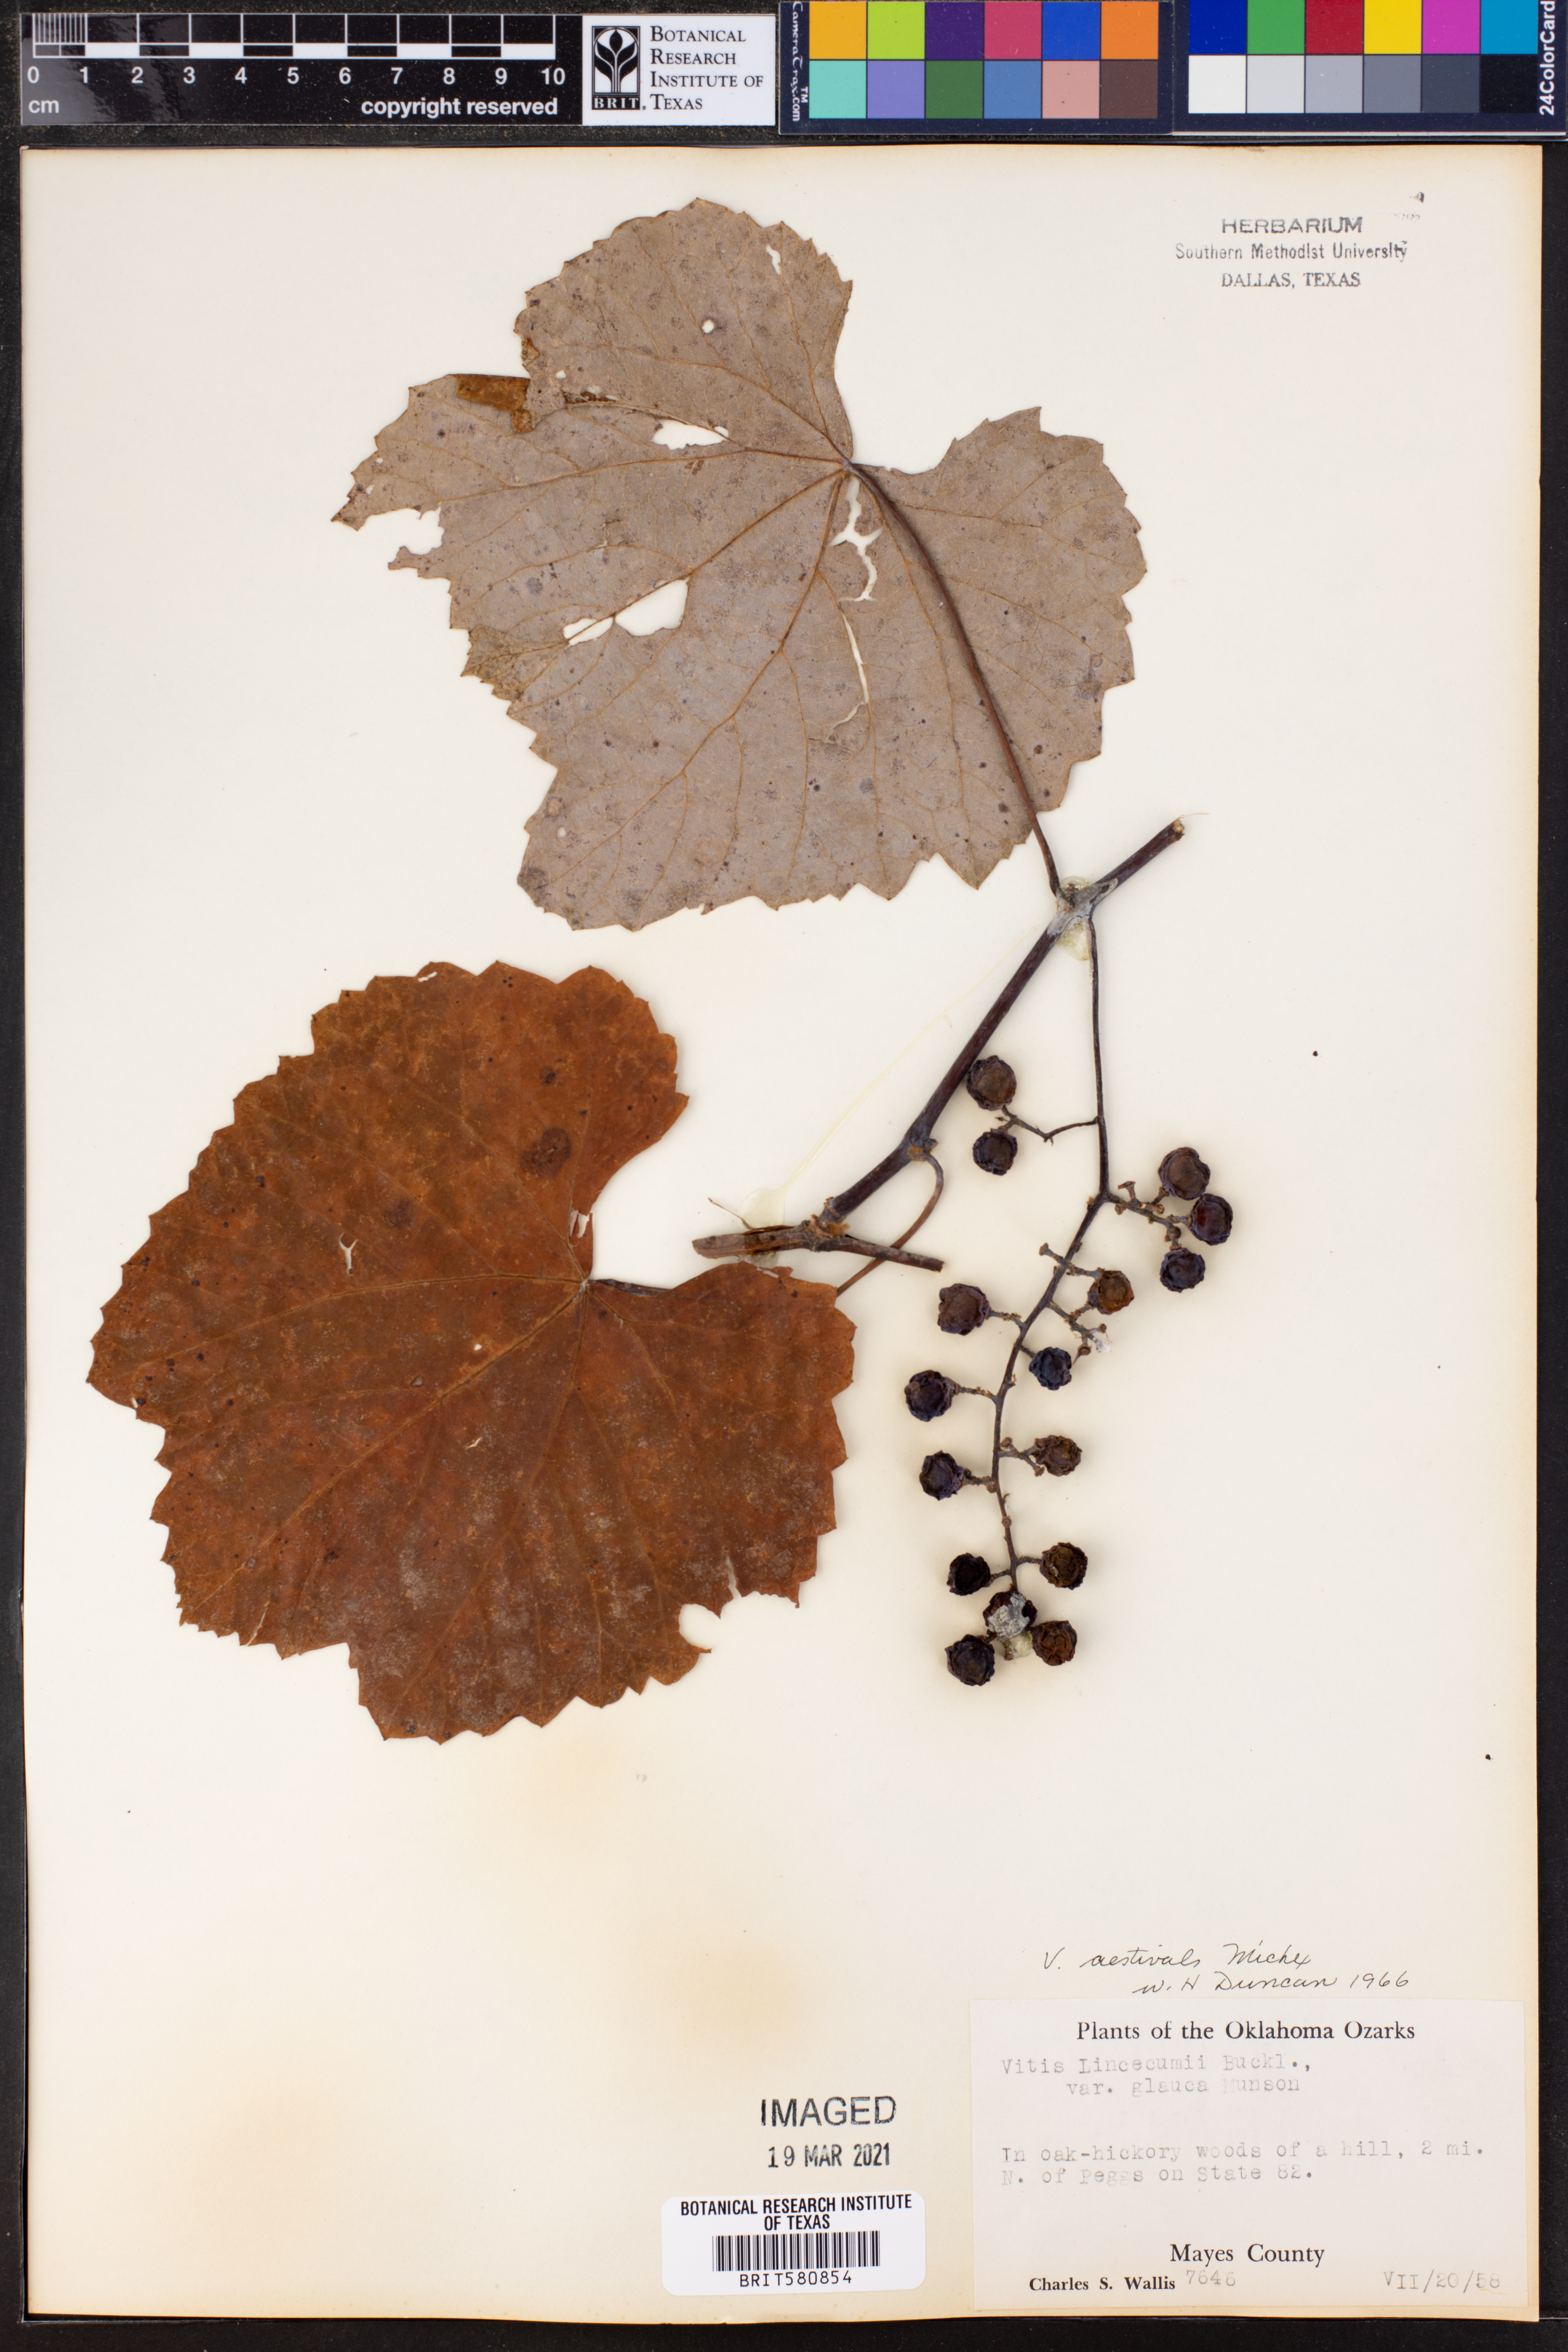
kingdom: Plantae
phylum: Tracheophyta
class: Magnoliopsida
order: Vitales
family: Vitaceae
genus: Vitis
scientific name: Vitis aestivalis
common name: Pigeon grape
